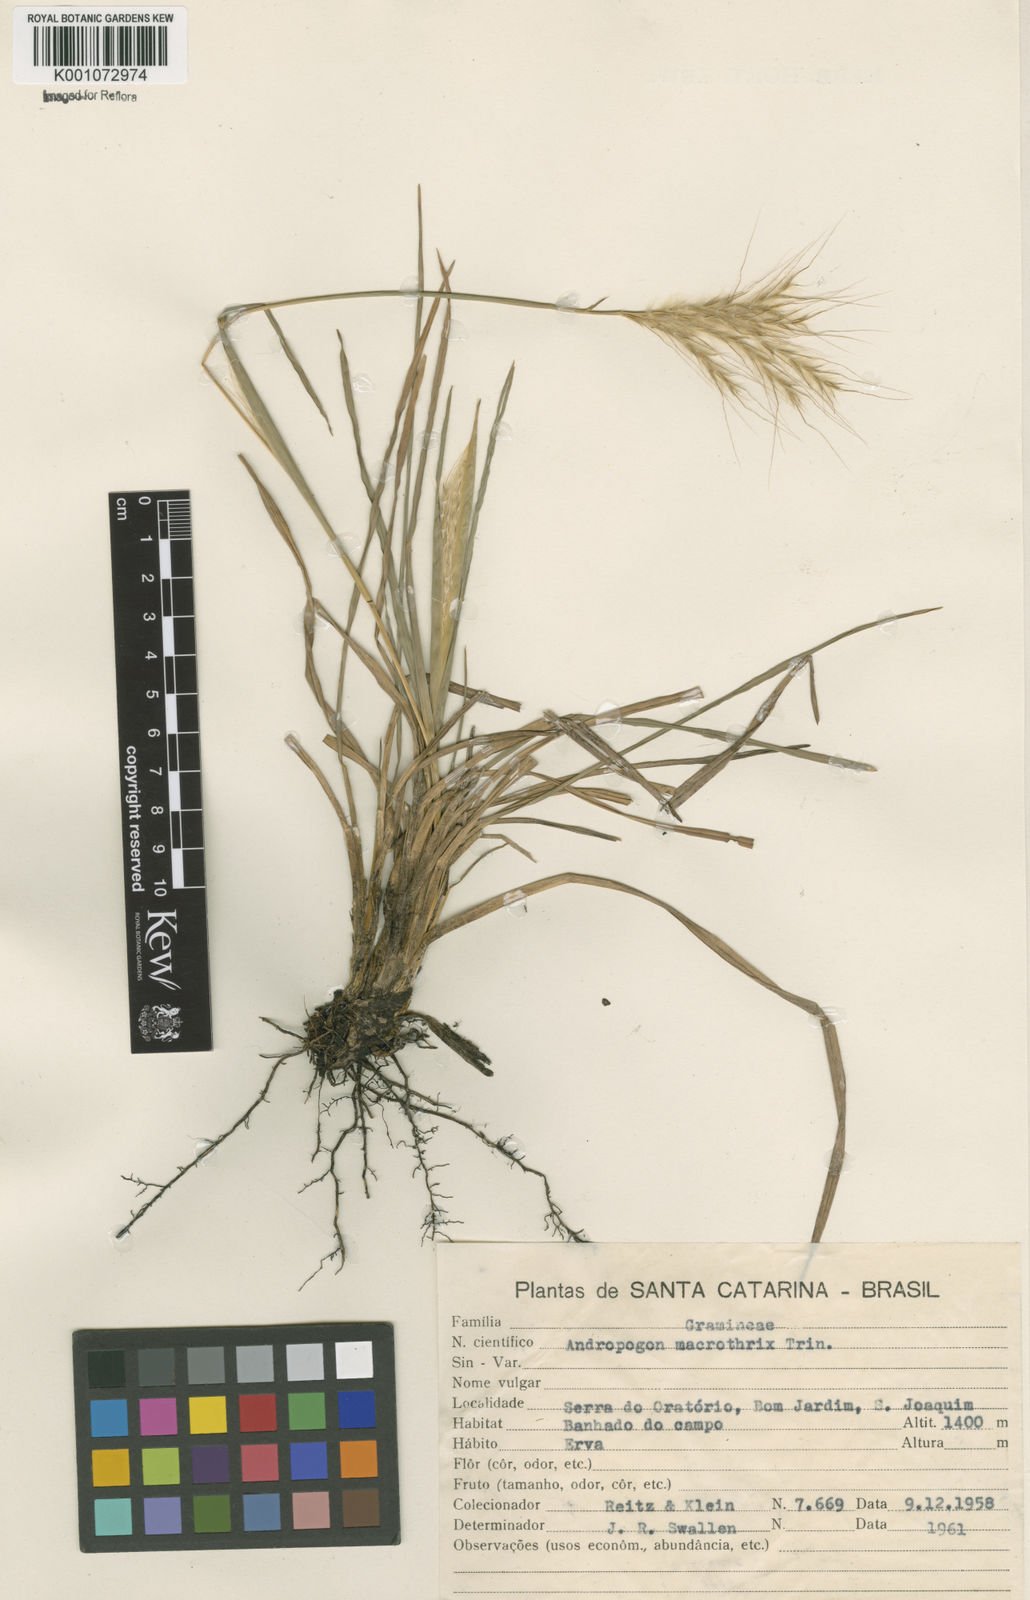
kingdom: Plantae
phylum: Tracheophyta
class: Liliopsida
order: Poales
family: Poaceae
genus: Andropogon
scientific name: Andropogon macrothrix
